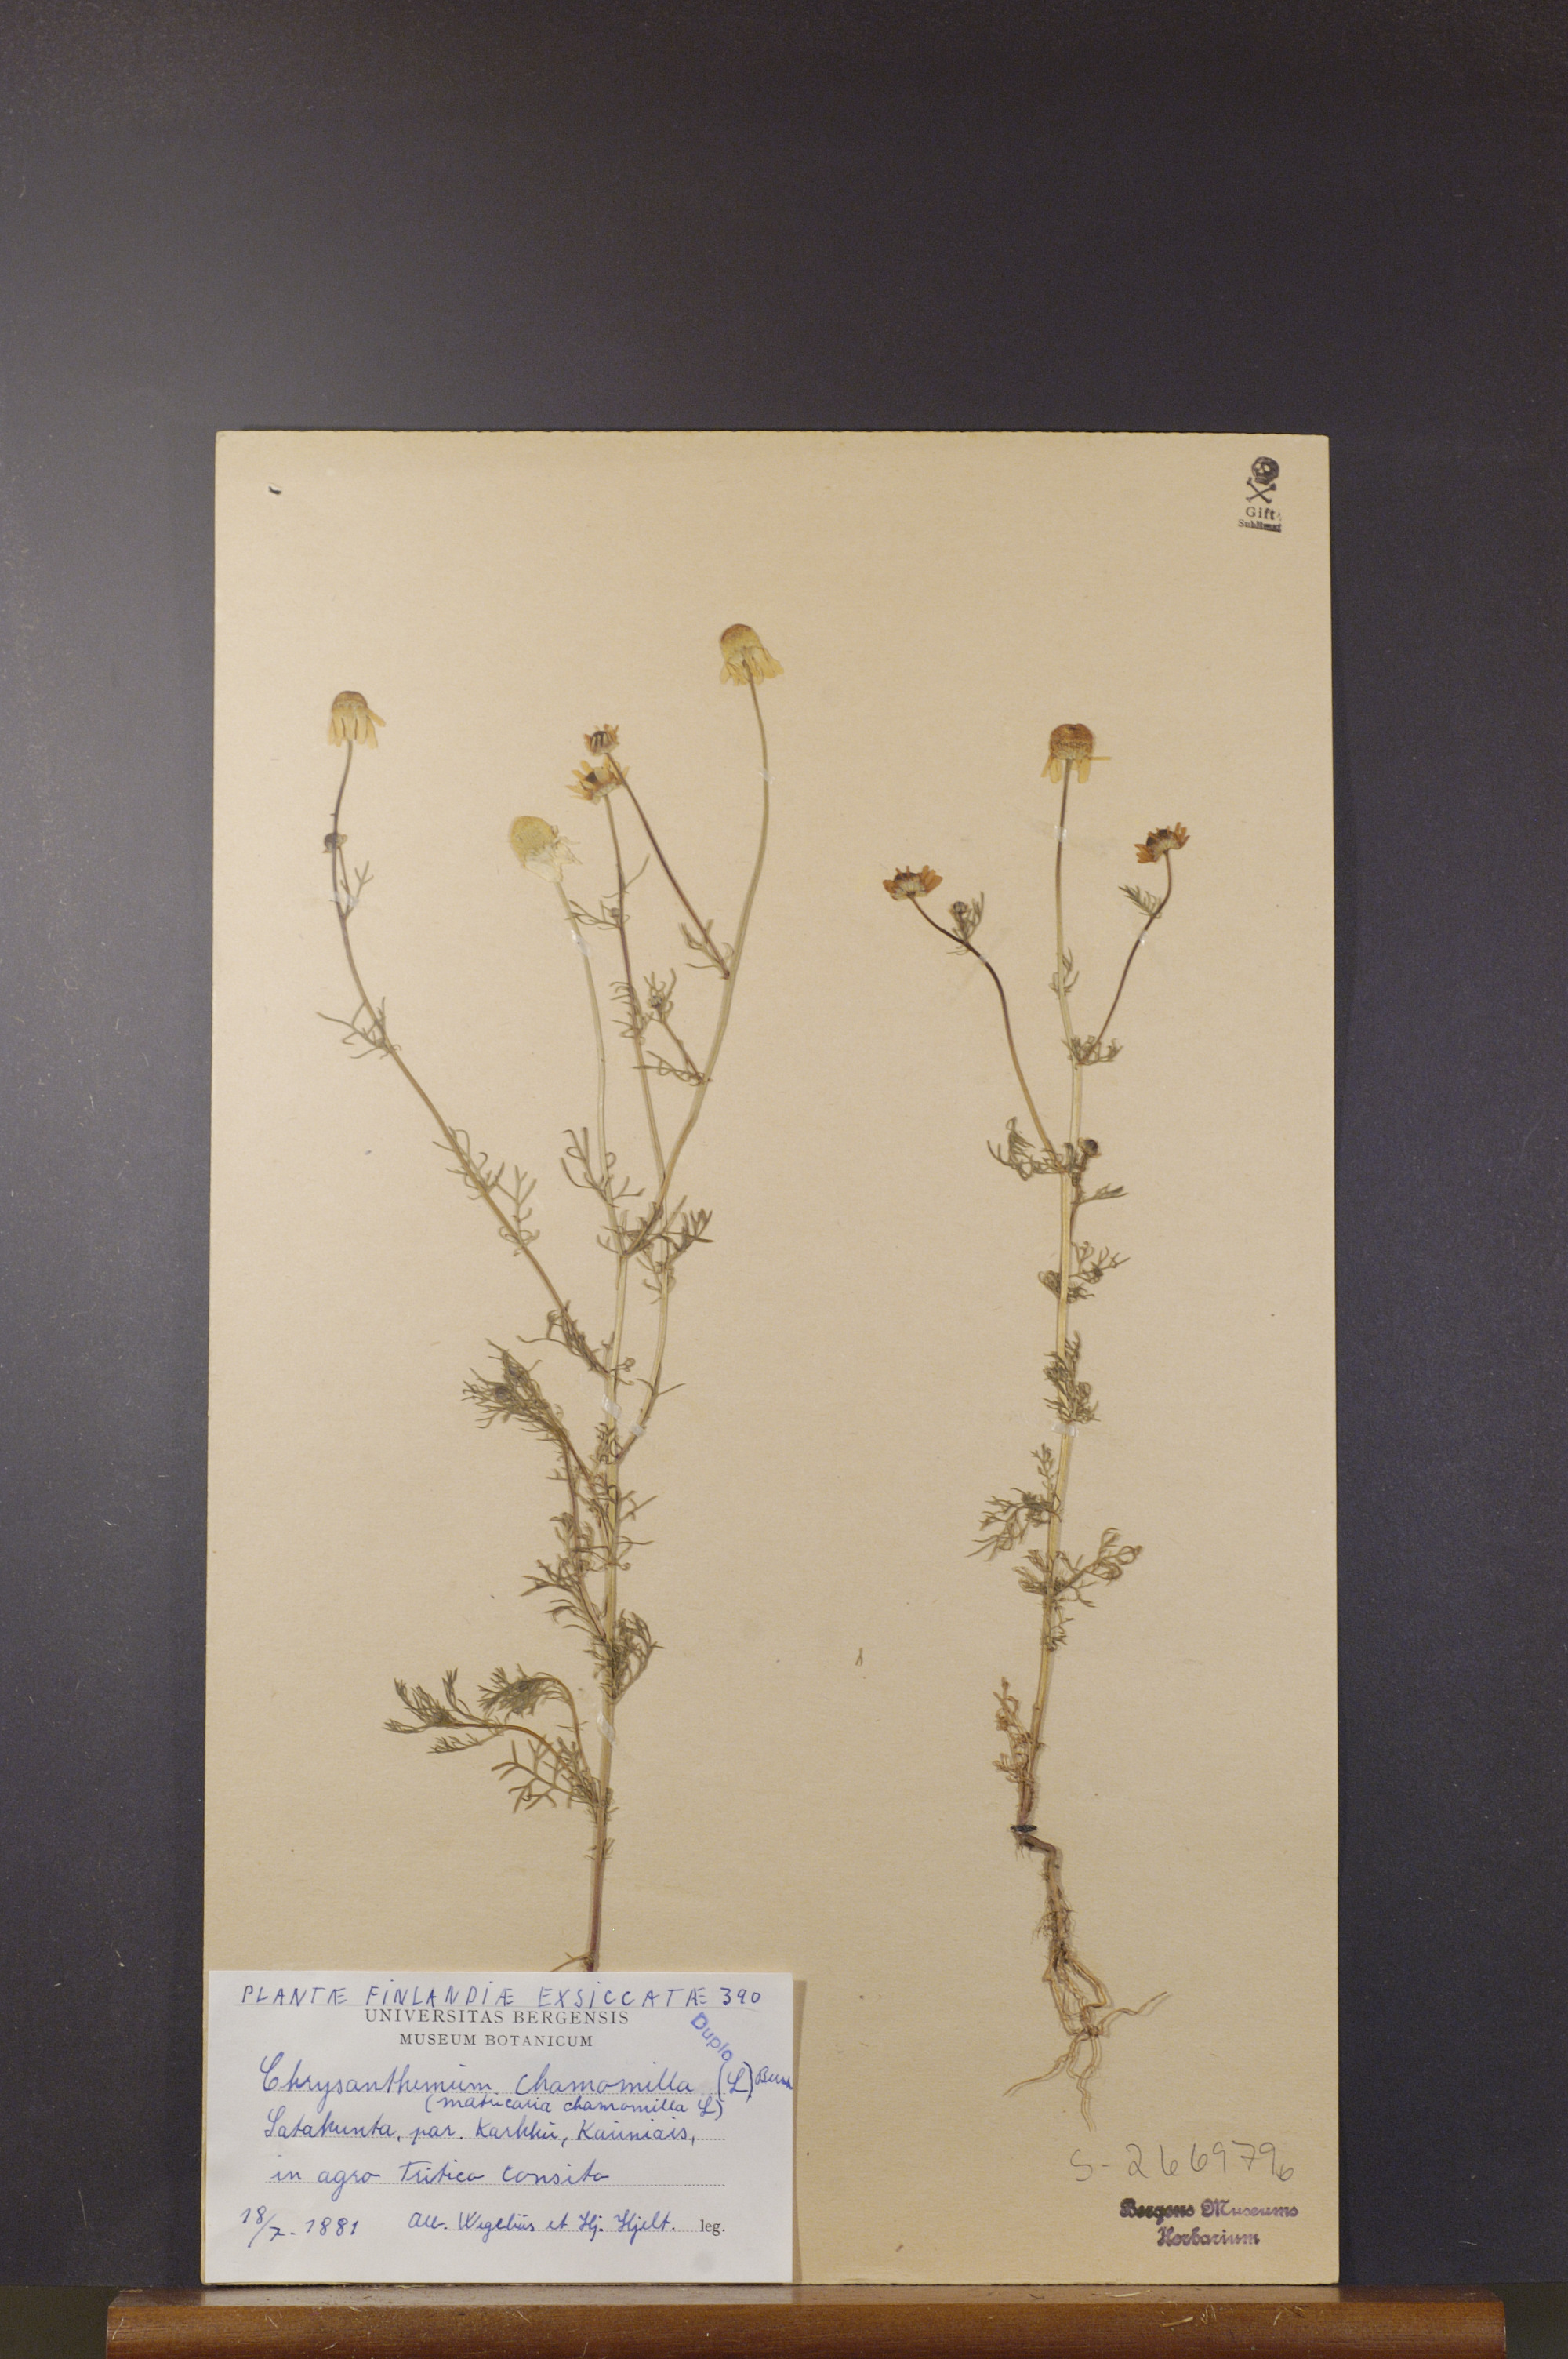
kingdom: Plantae
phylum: Tracheophyta
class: Magnoliopsida
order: Asterales
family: Asteraceae
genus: Matricaria
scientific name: Matricaria chamomilla
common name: Scented mayweed
